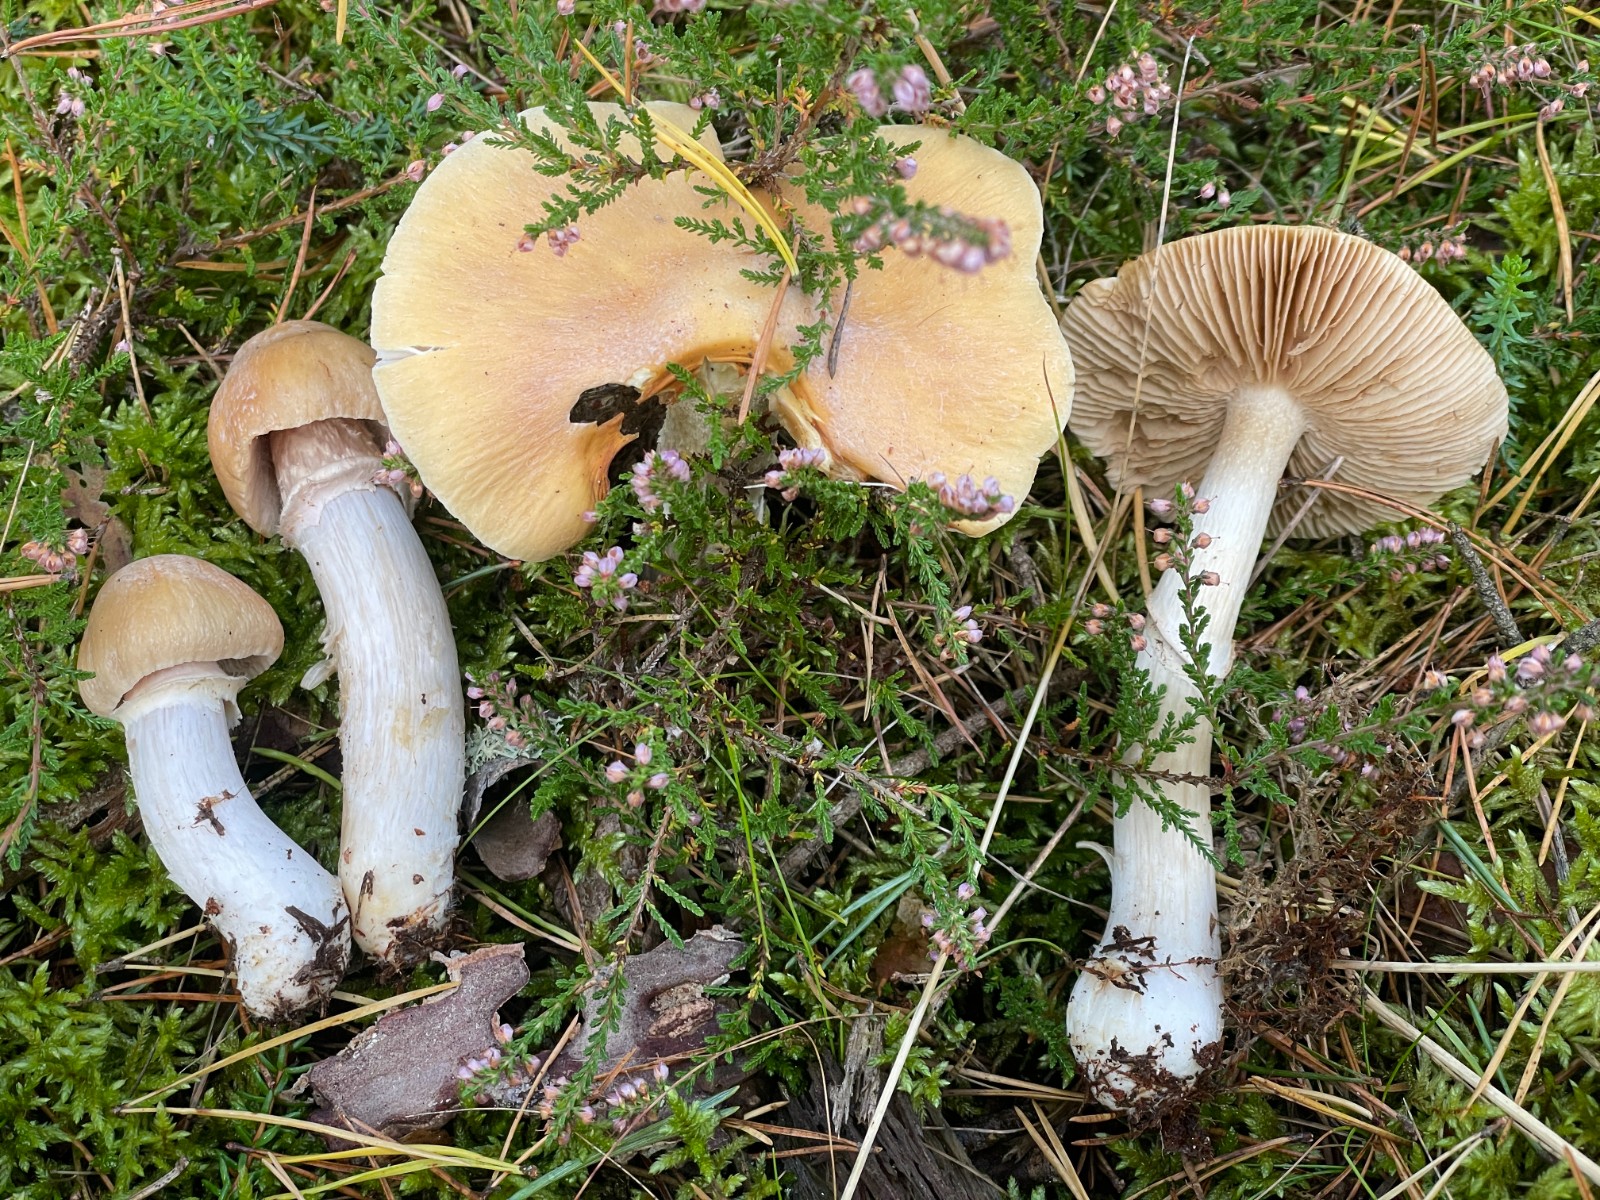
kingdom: Fungi
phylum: Basidiomycota
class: Agaricomycetes
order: Agaricales
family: Cortinariaceae
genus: Cortinarius
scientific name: Cortinarius caperatus
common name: klidhat
